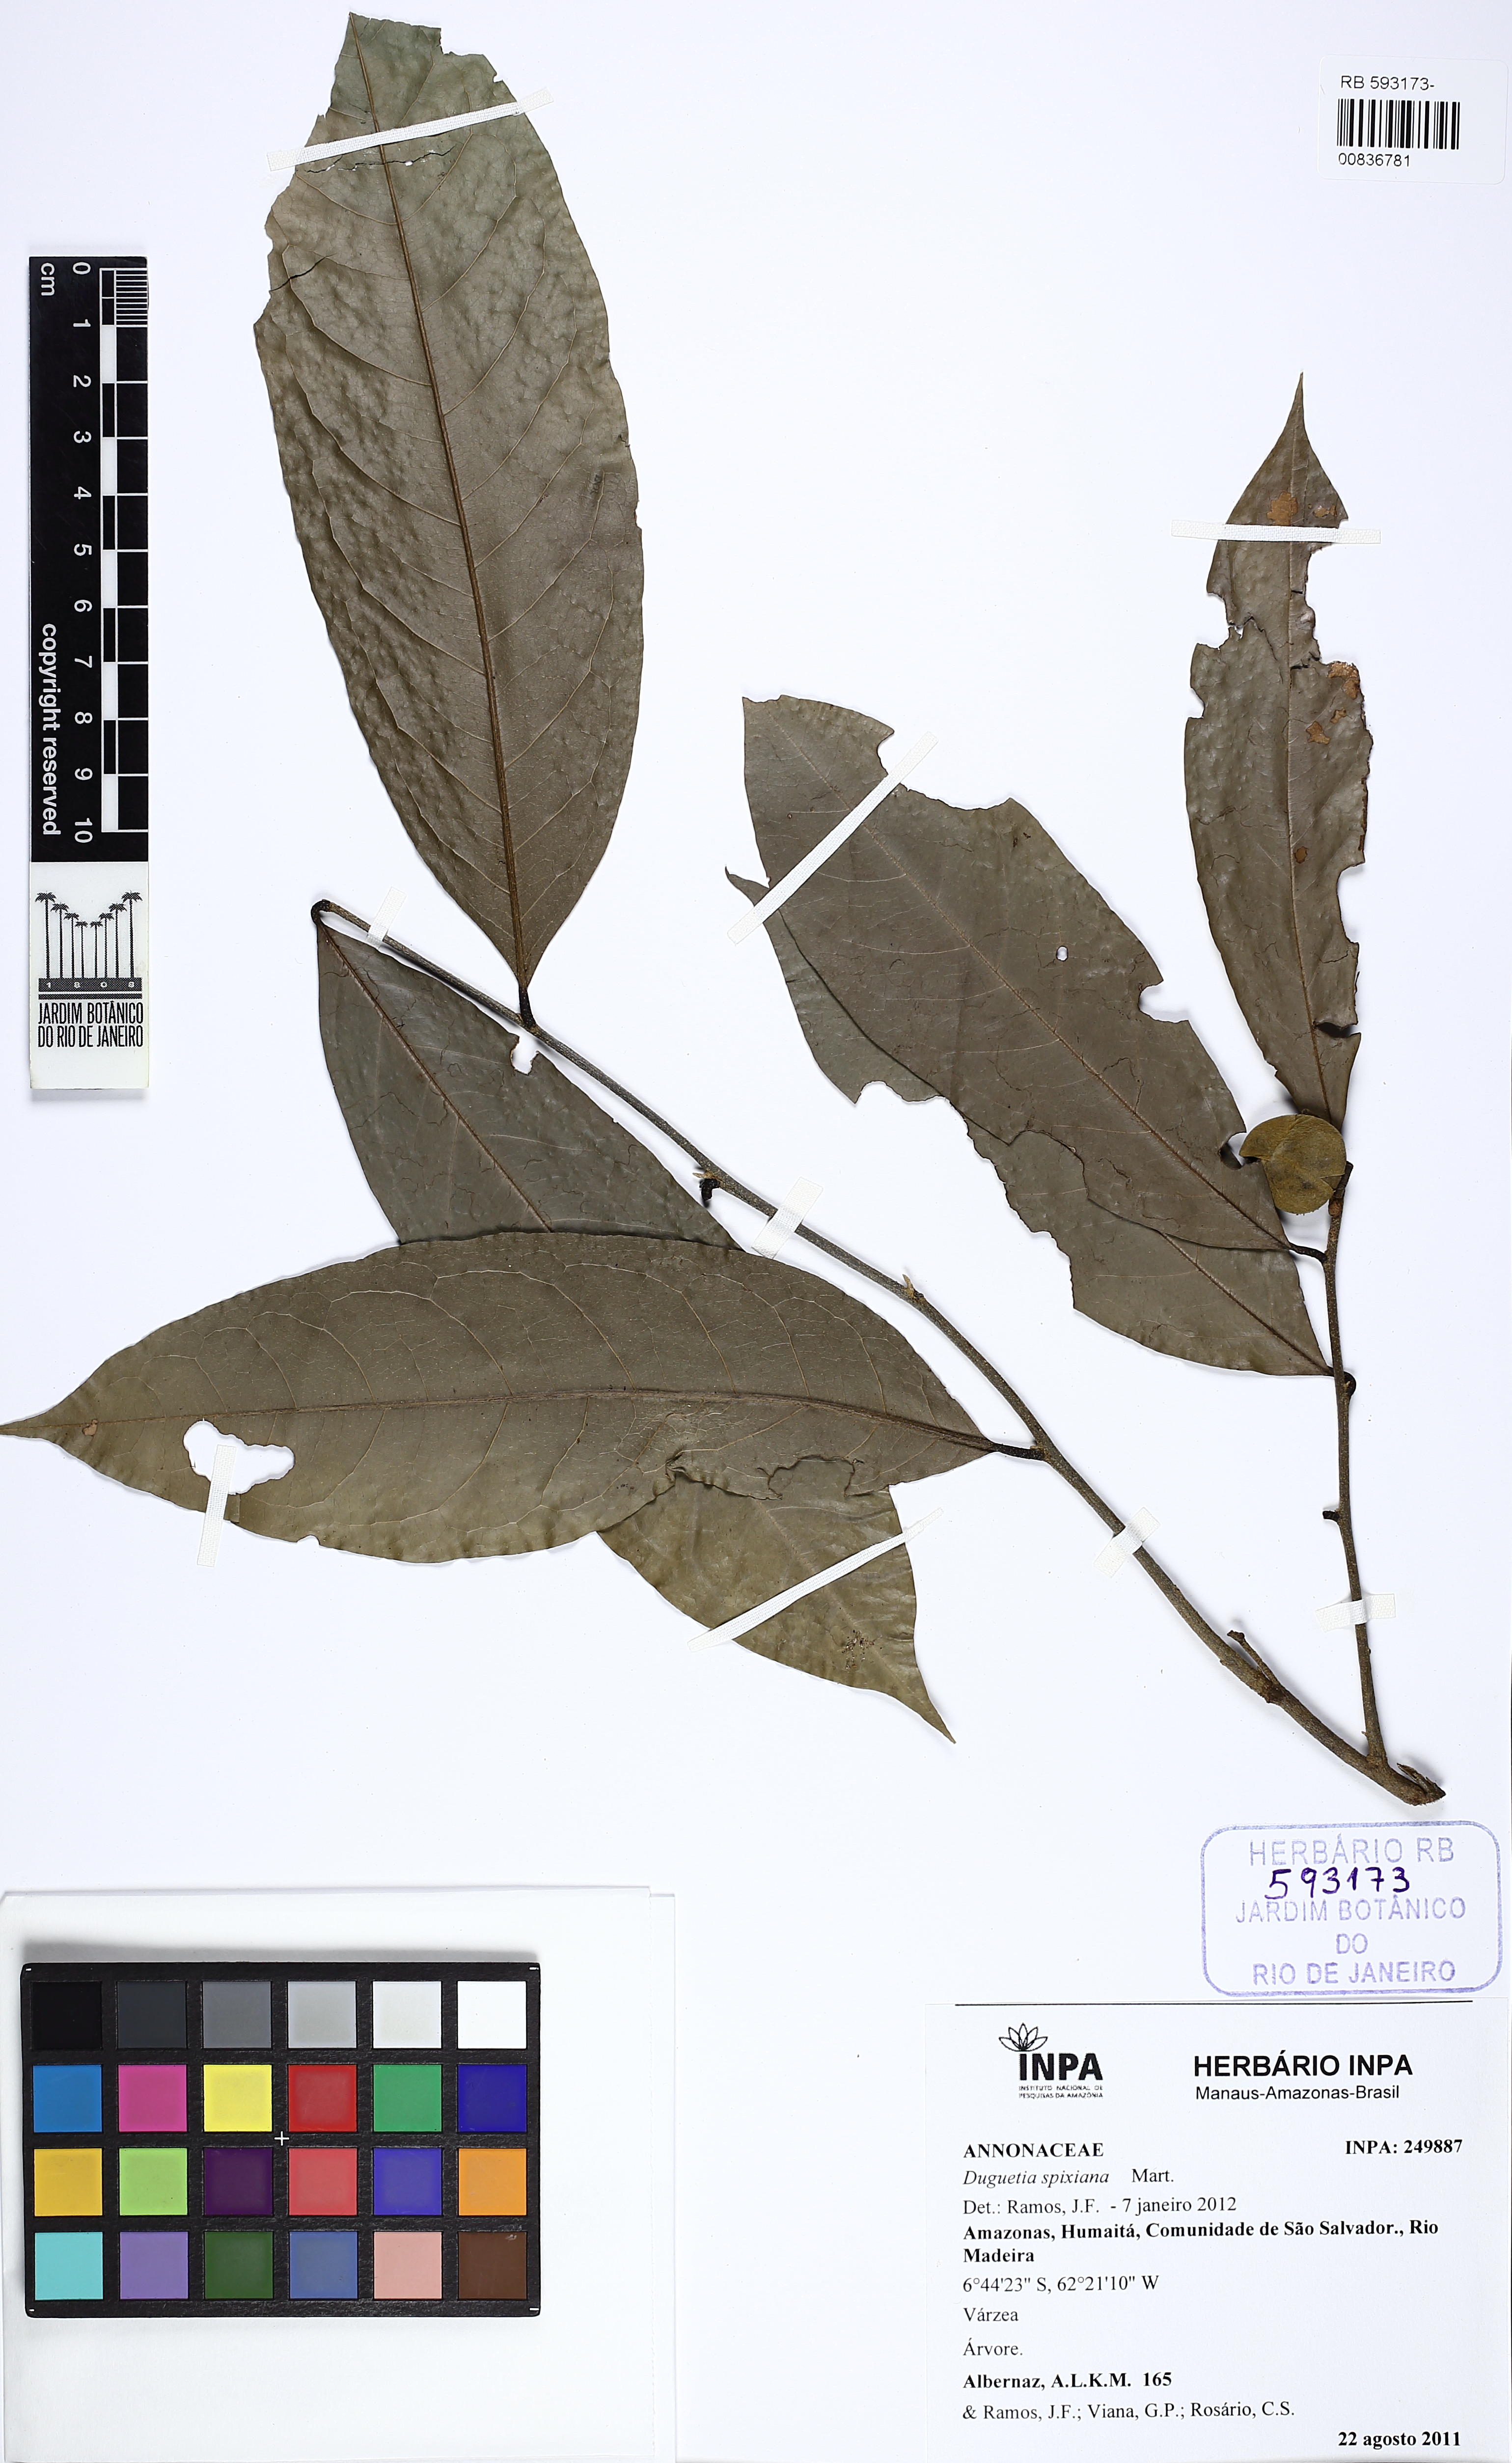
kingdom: Plantae
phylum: Tracheophyta
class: Magnoliopsida
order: Magnoliales
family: Annonaceae
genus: Duguetia
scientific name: Duguetia spixiana
